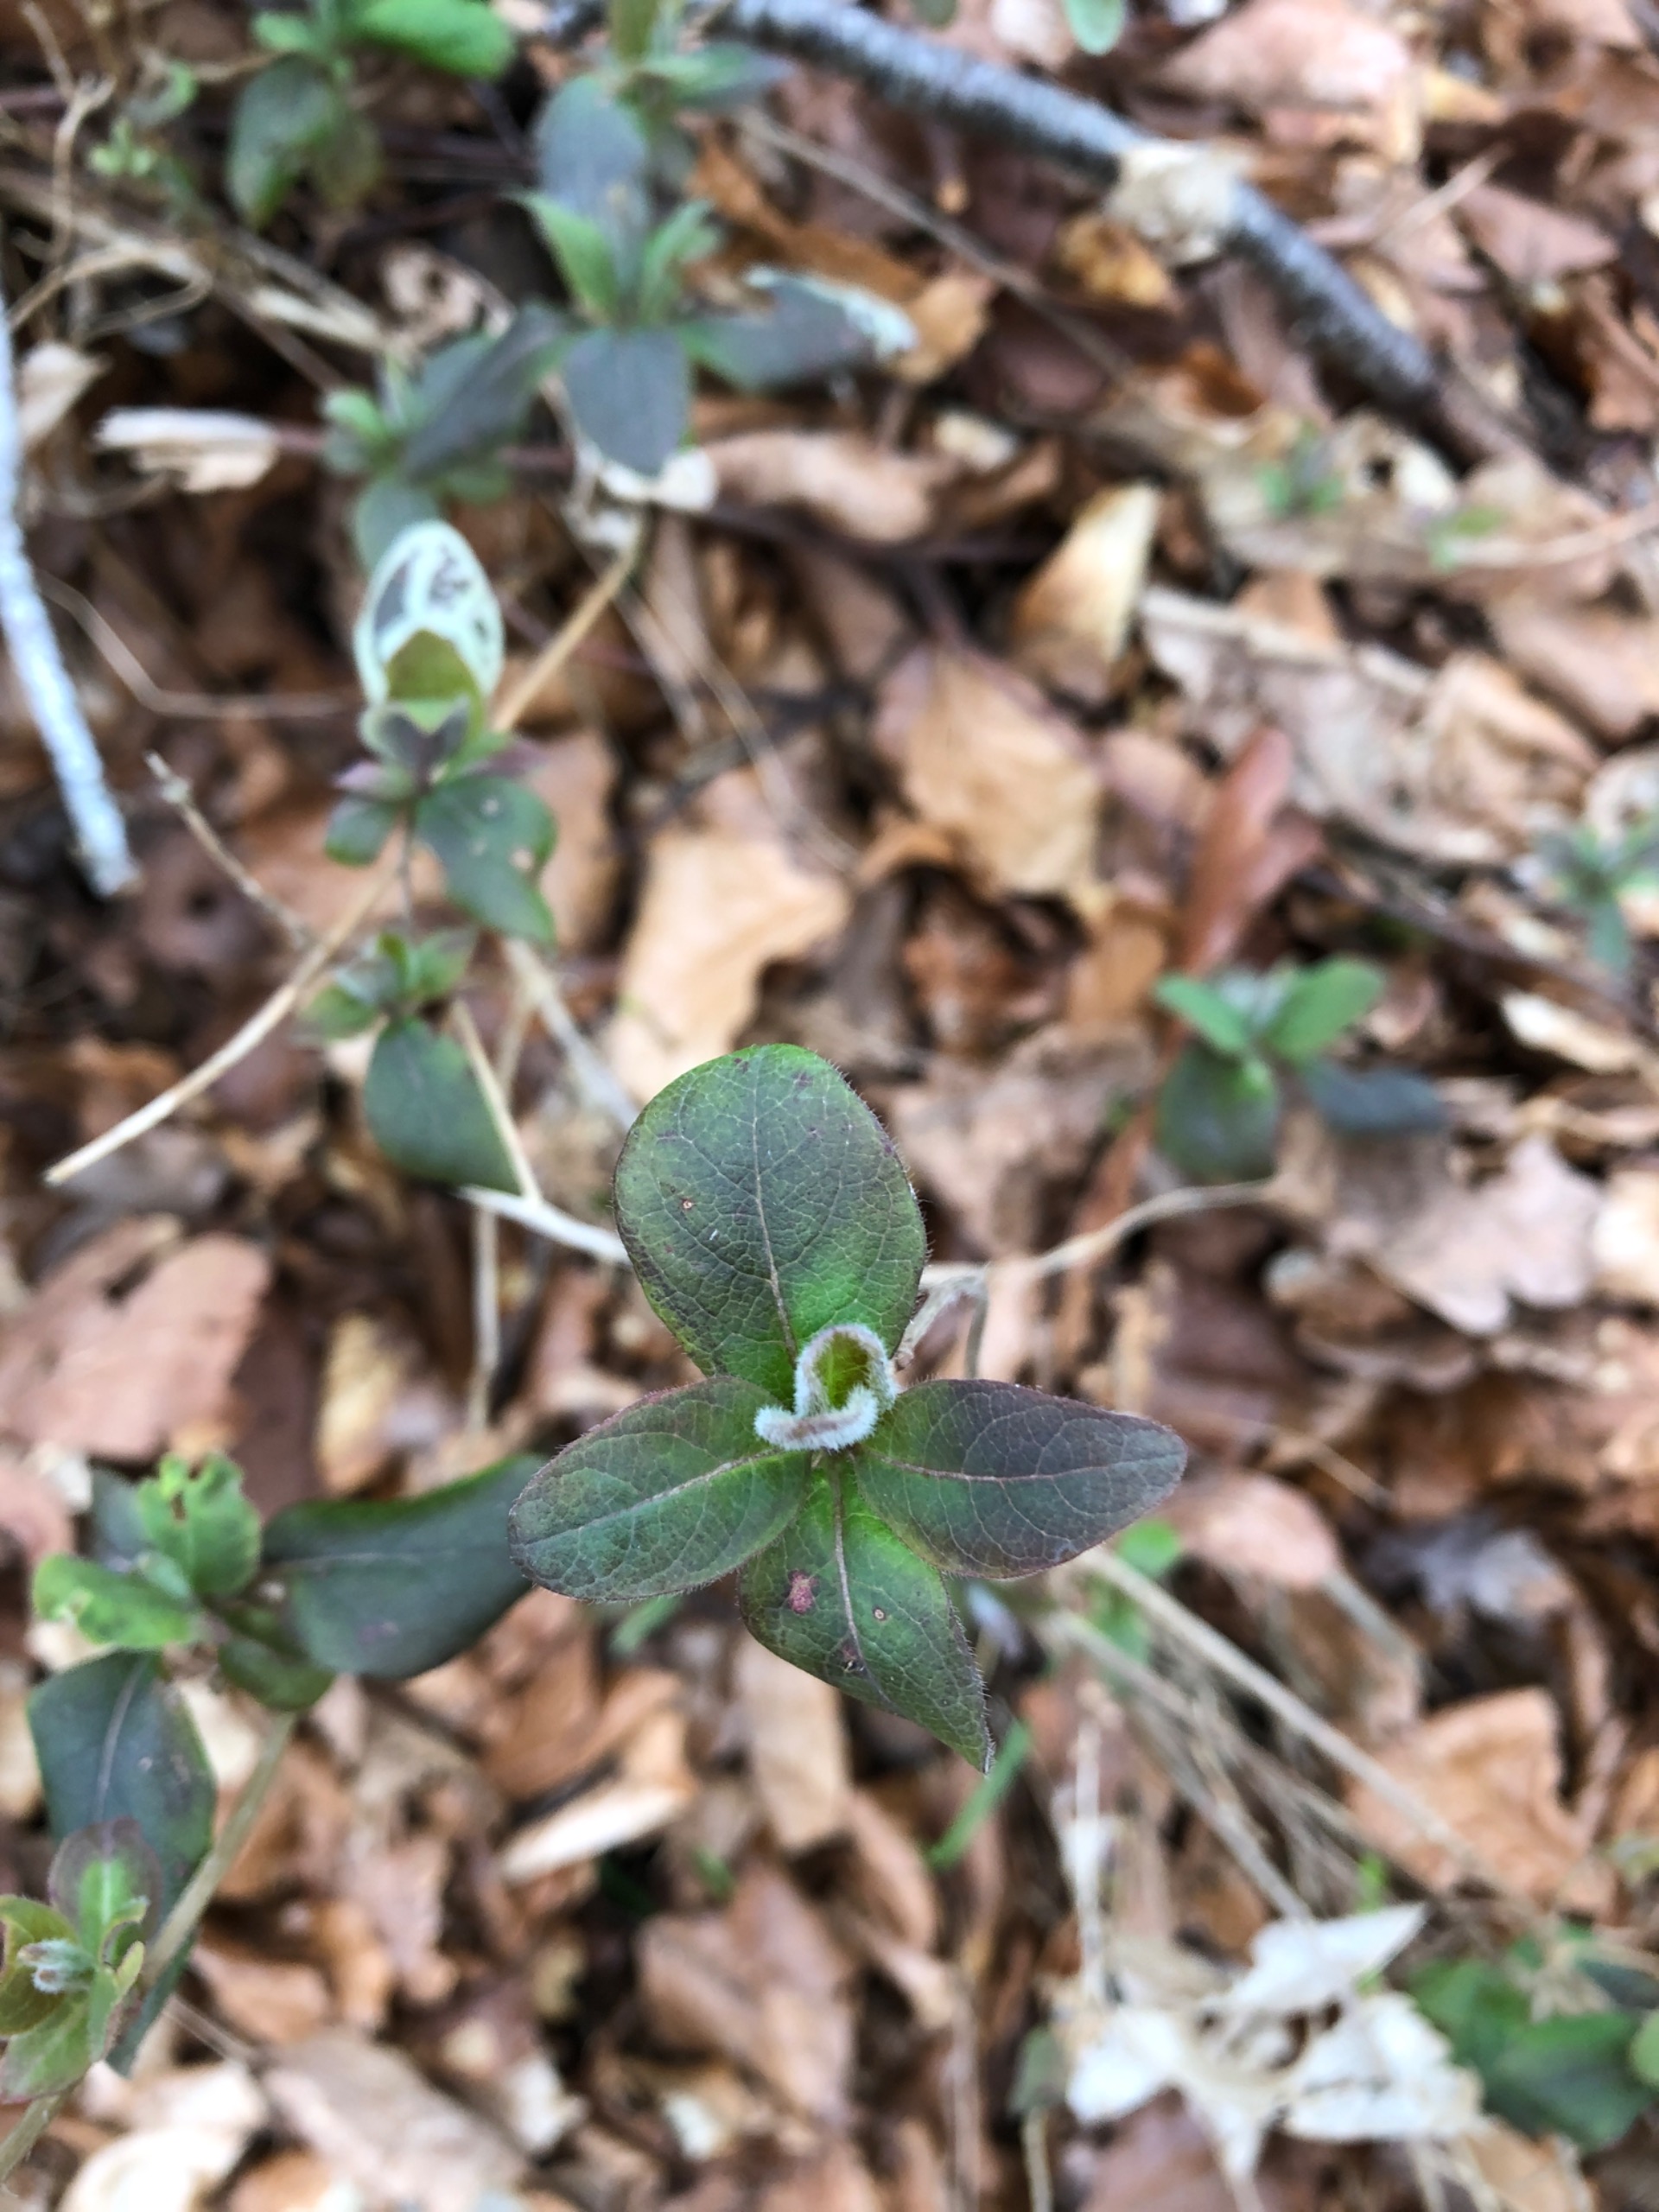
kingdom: Plantae
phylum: Tracheophyta
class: Magnoliopsida
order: Dipsacales
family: Caprifoliaceae
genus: Lonicera
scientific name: Lonicera periclymenum
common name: Almindelig gedeblad
